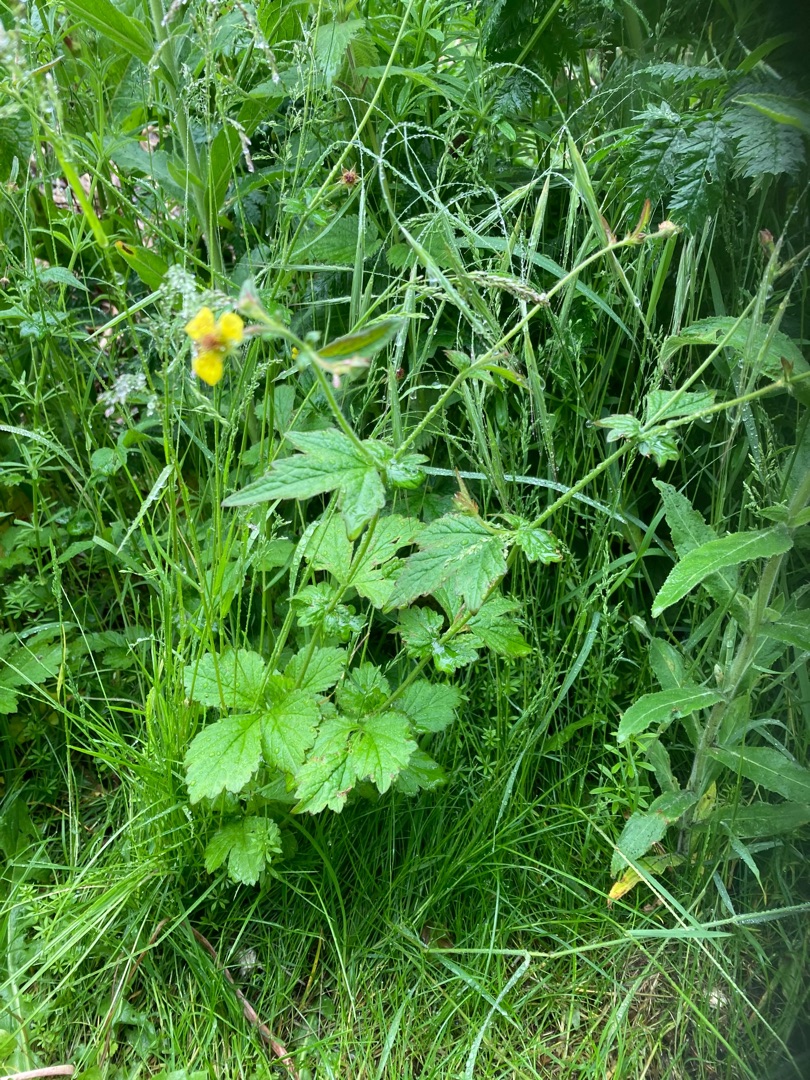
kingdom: Plantae
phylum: Tracheophyta
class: Magnoliopsida
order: Rosales
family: Rosaceae
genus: Geum
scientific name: Geum urbanum
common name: Feber-nellikerod
